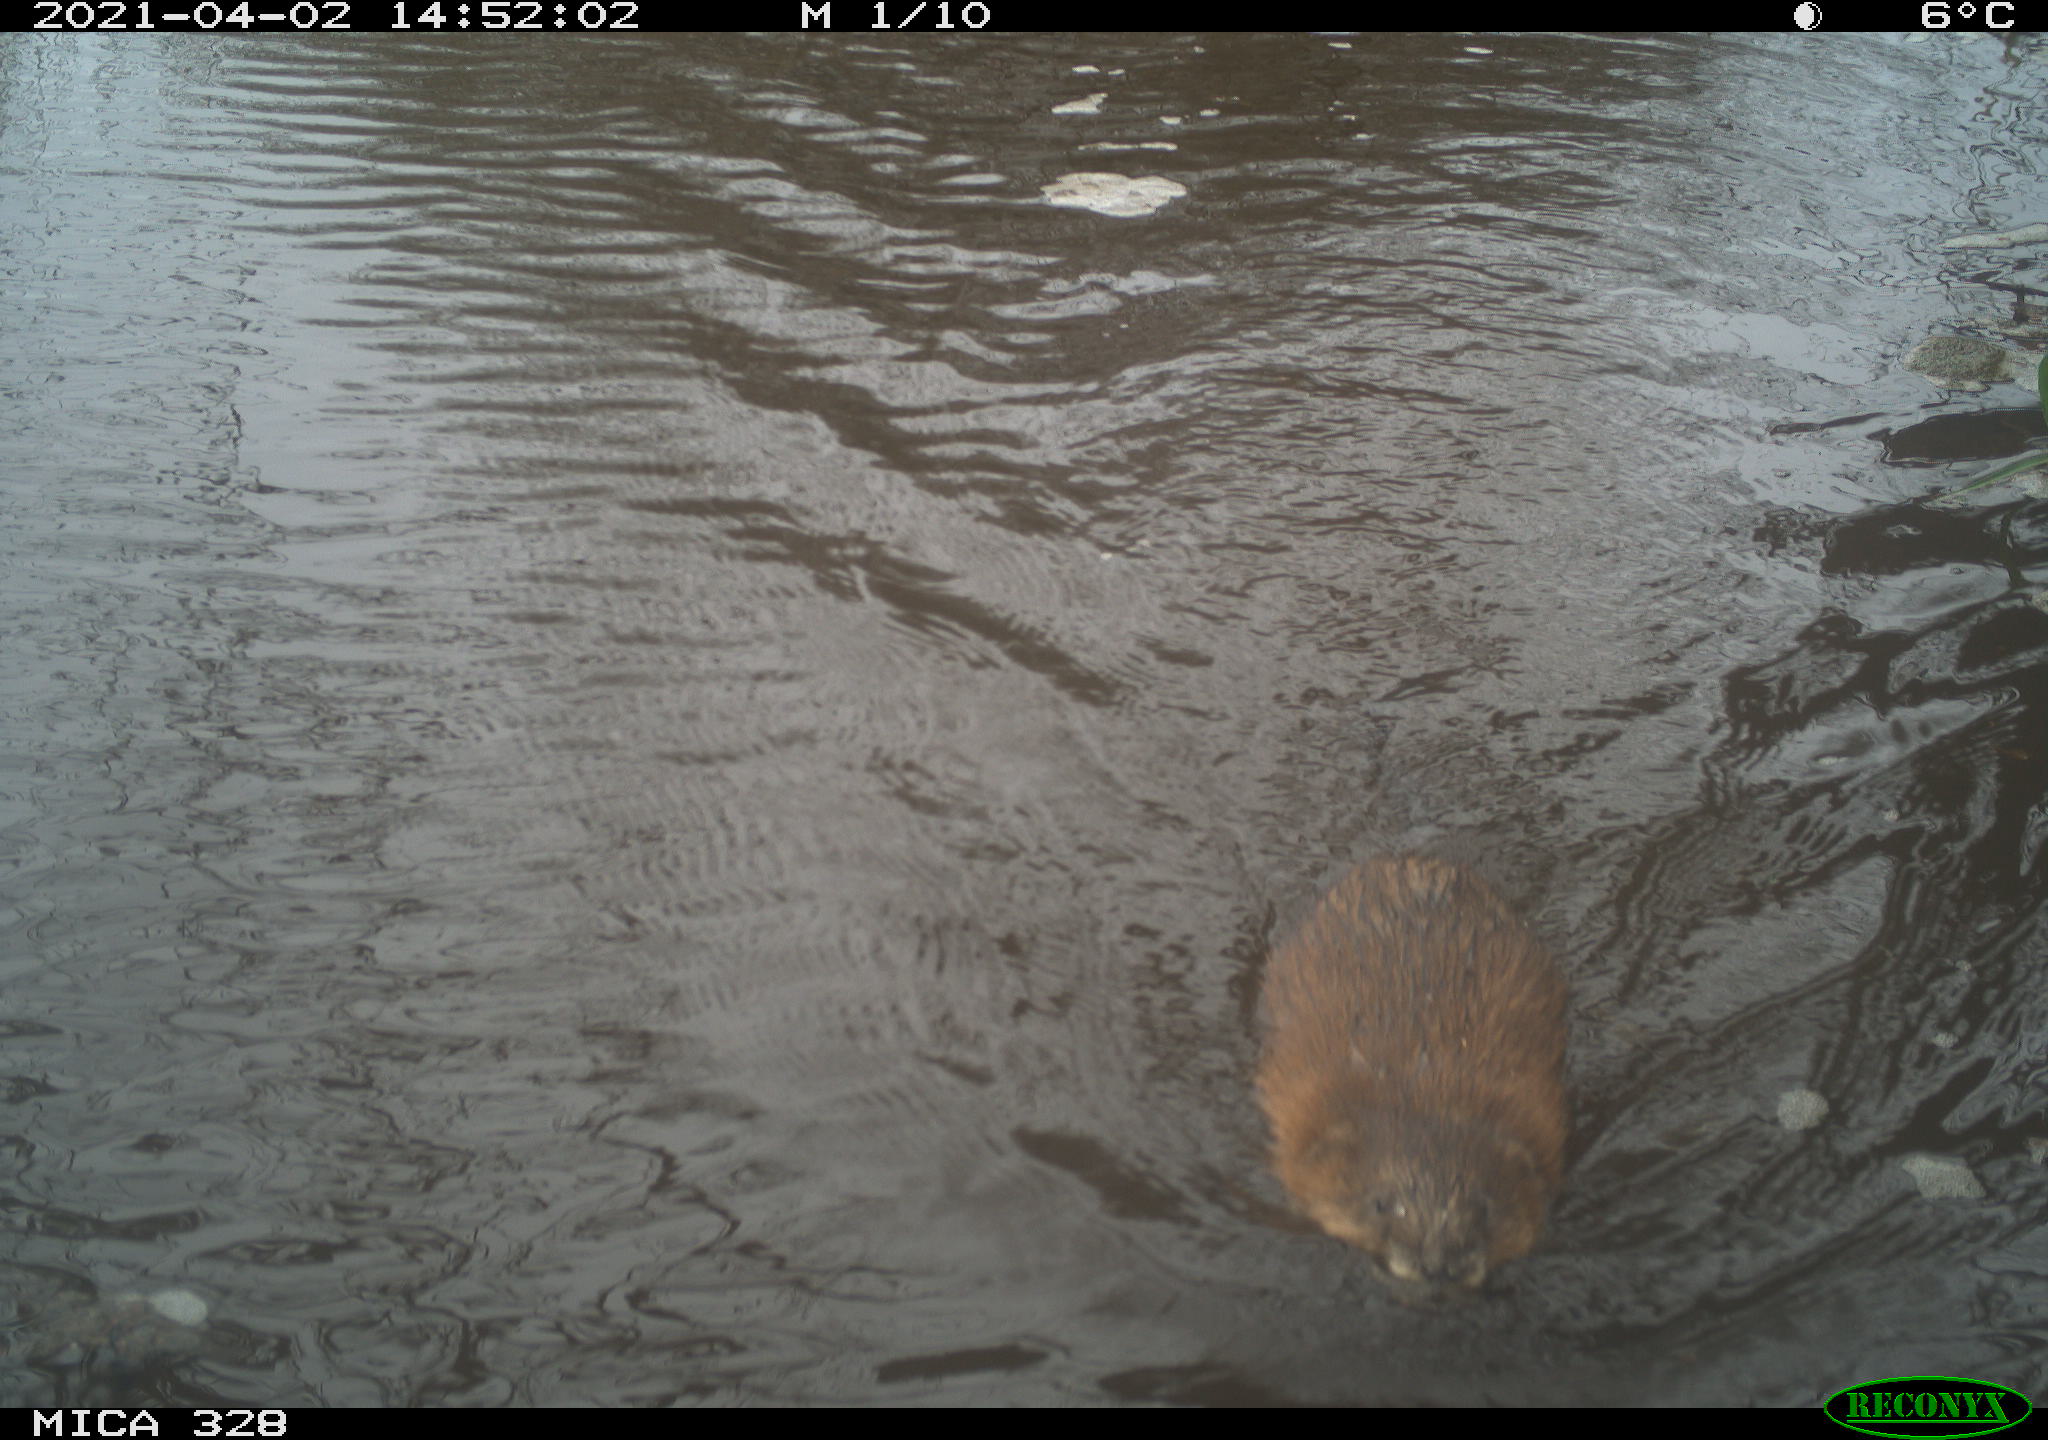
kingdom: Animalia
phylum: Chordata
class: Mammalia
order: Rodentia
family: Cricetidae
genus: Ondatra
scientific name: Ondatra zibethicus
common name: Muskrat
